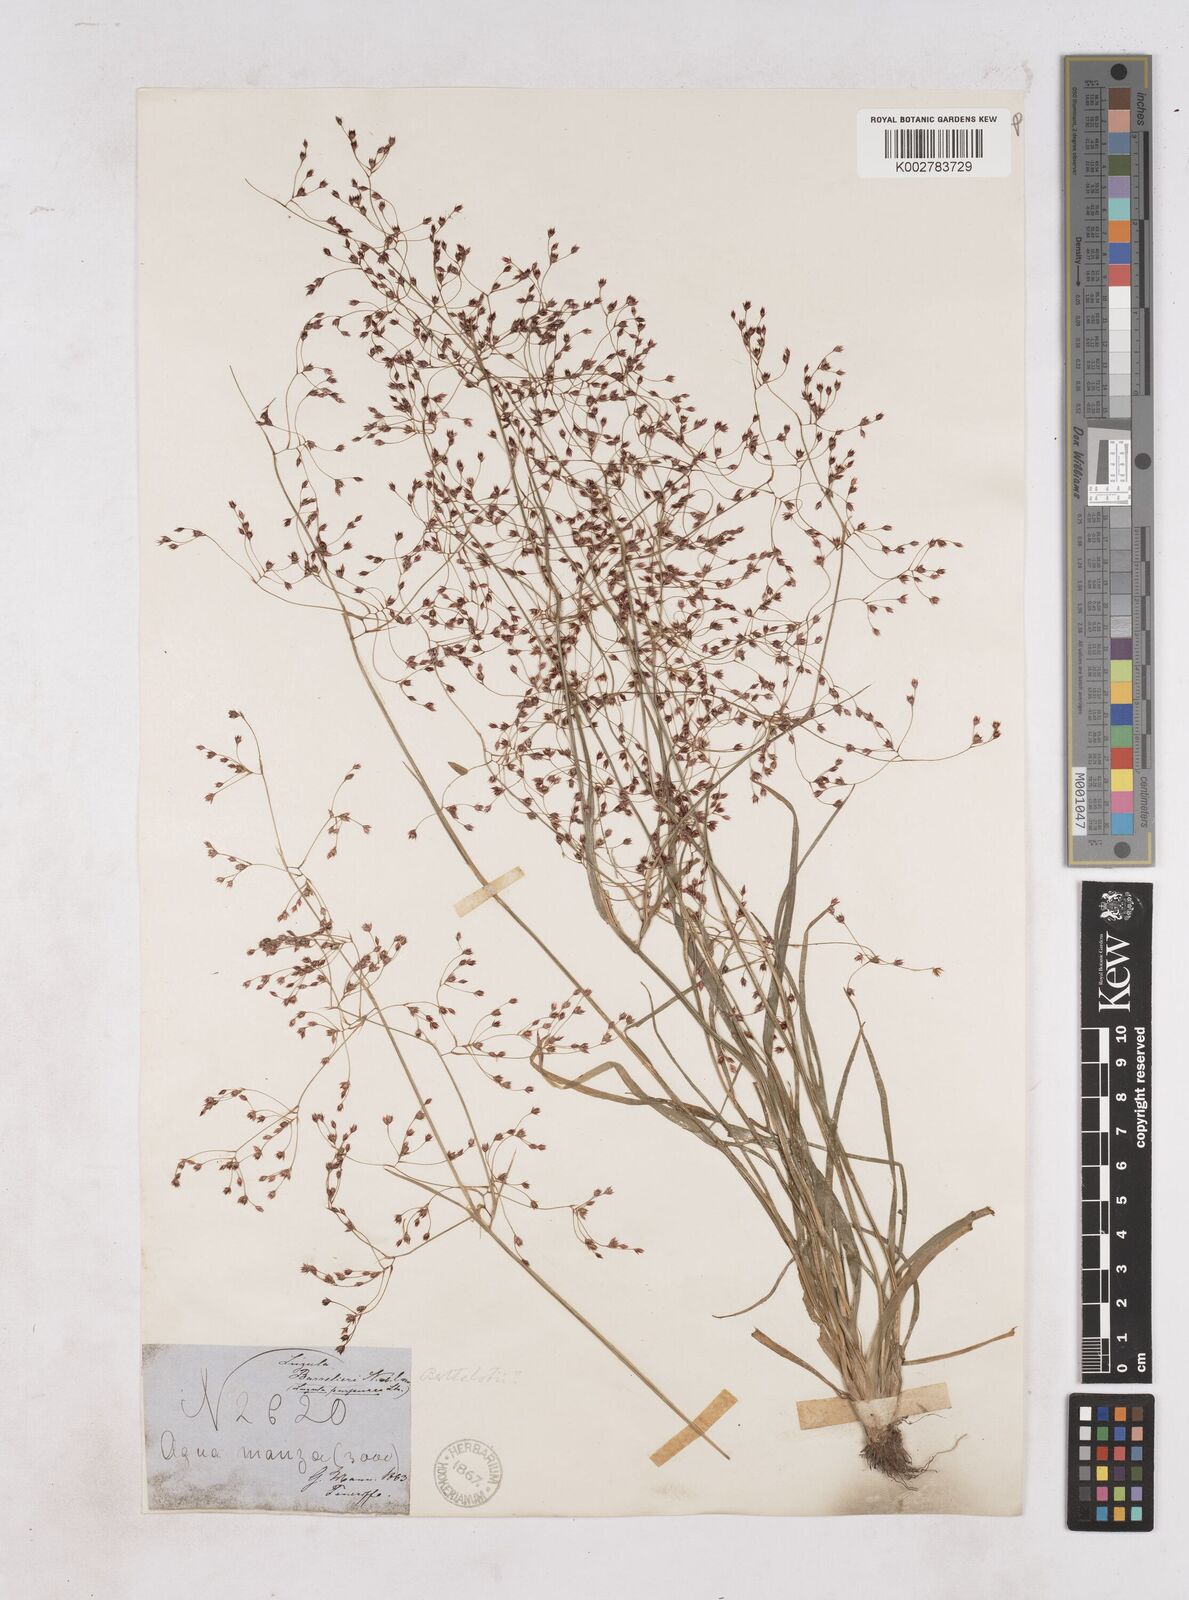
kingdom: Plantae
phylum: Tracheophyta
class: Liliopsida
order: Poales
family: Juncaceae
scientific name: Juncaceae
